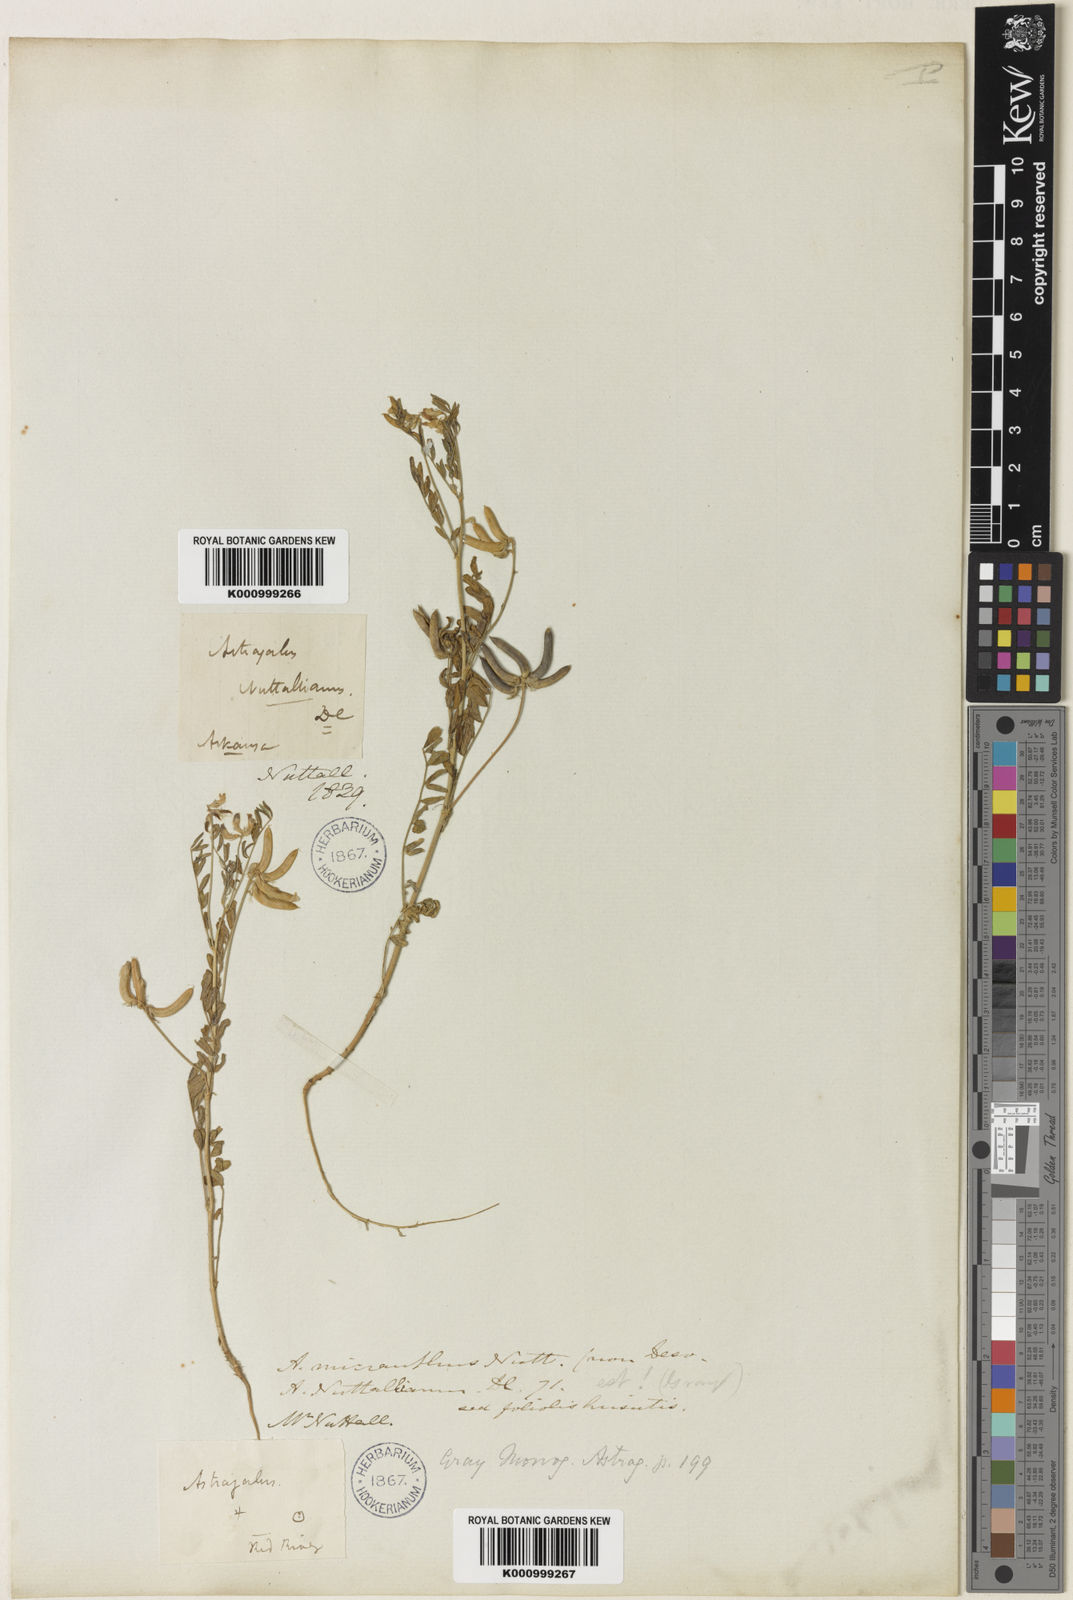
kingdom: Plantae
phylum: Tracheophyta
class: Magnoliopsida
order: Fabales
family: Fabaceae
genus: Astragalus
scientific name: Astragalus nuttallianus
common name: Smallflowered milkvetch
